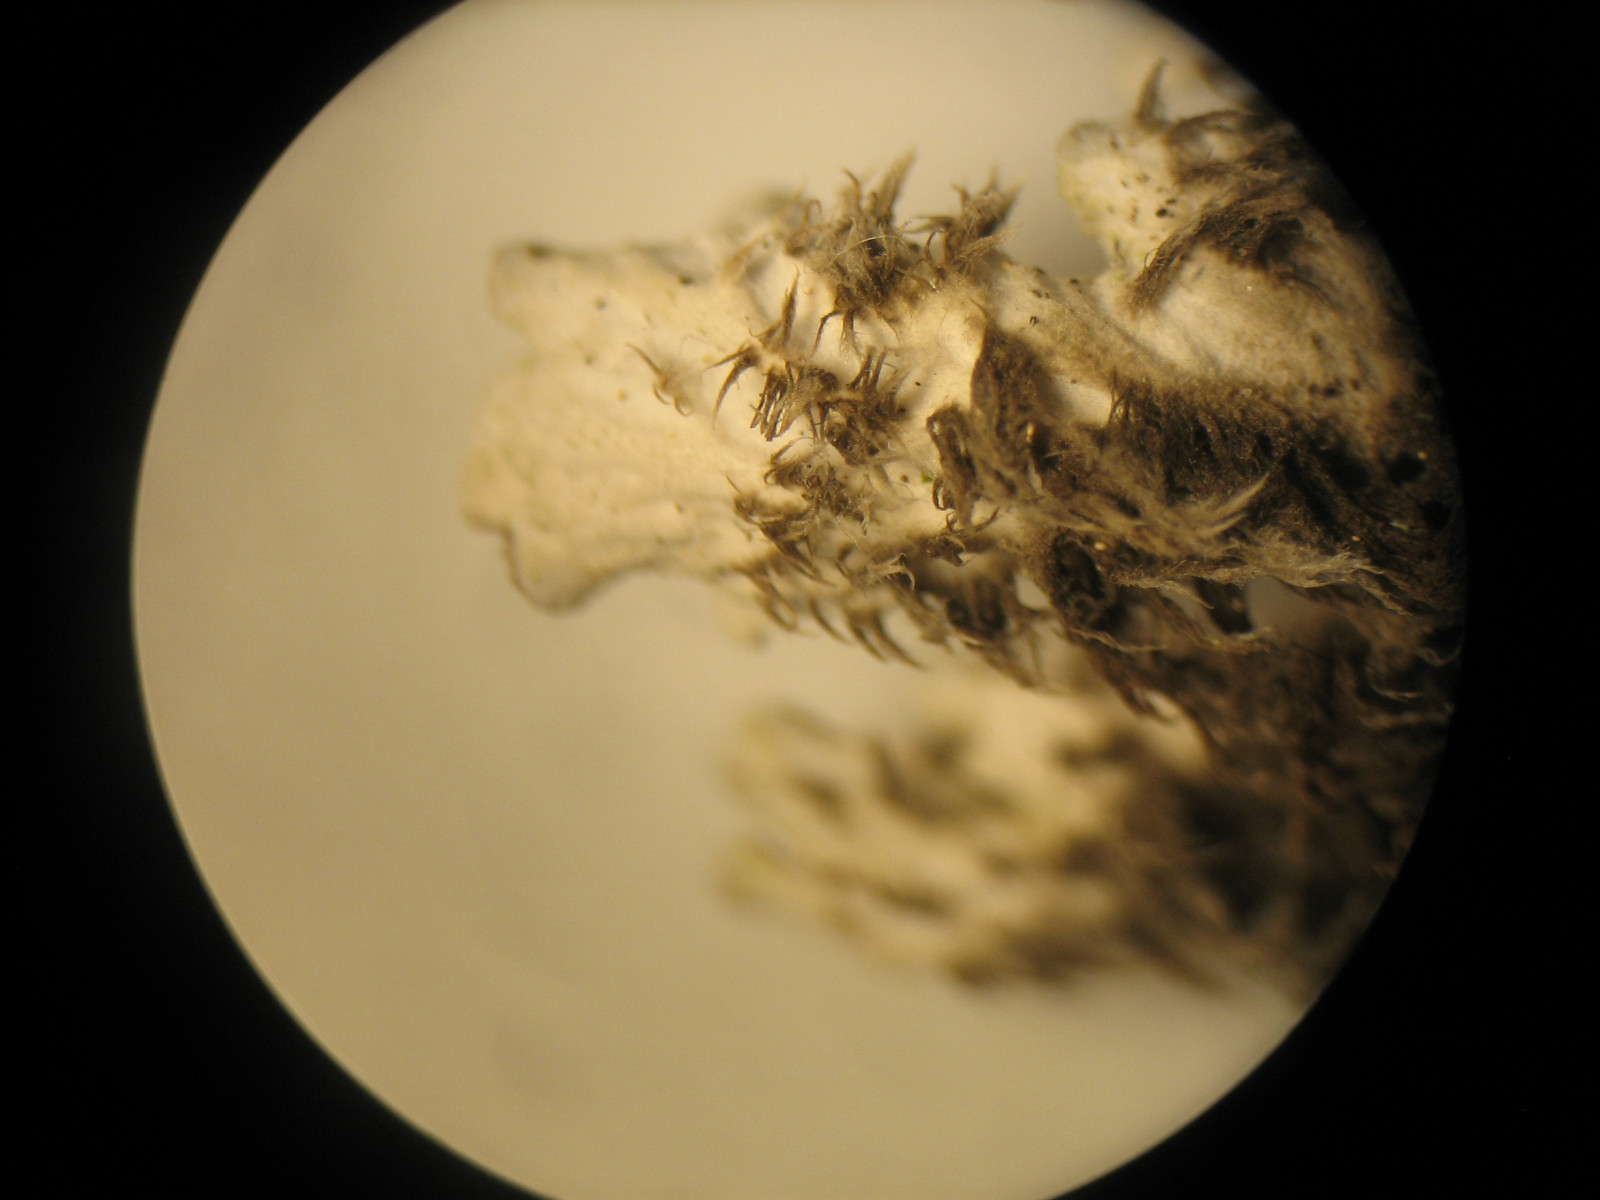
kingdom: Fungi
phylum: Ascomycota
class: Lecanoromycetes
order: Peltigerales
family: Peltigeraceae
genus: Peltigera
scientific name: Peltigera rufescens
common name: brun skjoldlav
